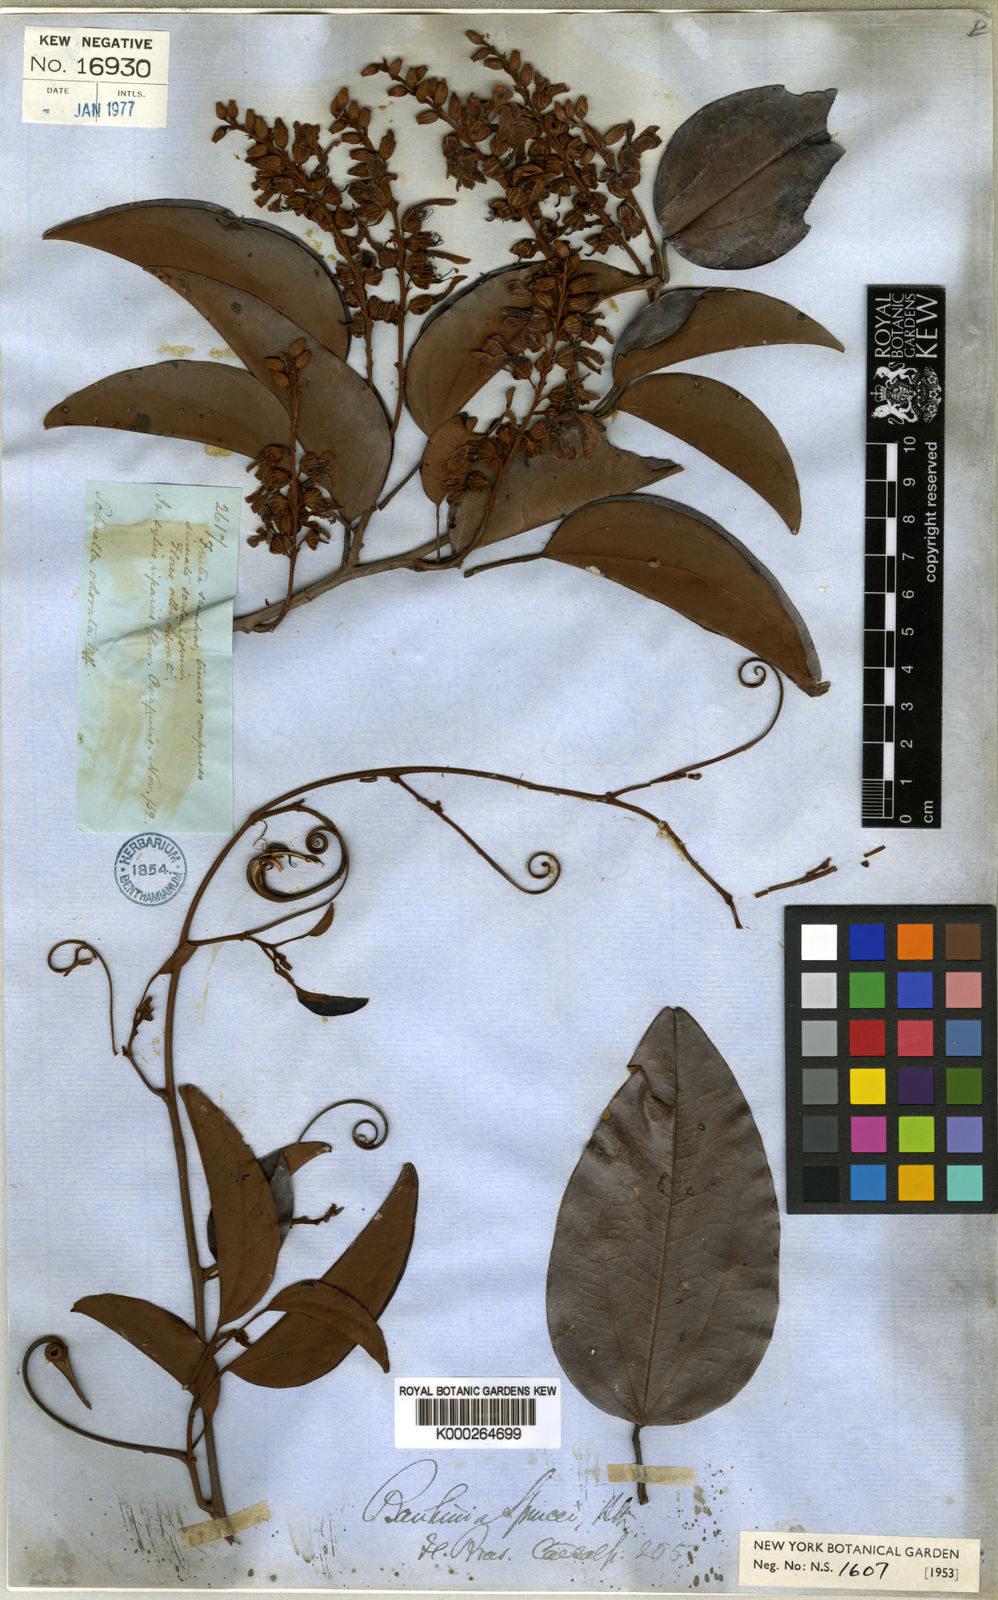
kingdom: Plantae
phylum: Tracheophyta
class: Magnoliopsida
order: Fabales
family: Fabaceae
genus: Schnella
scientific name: Schnella sprucei
